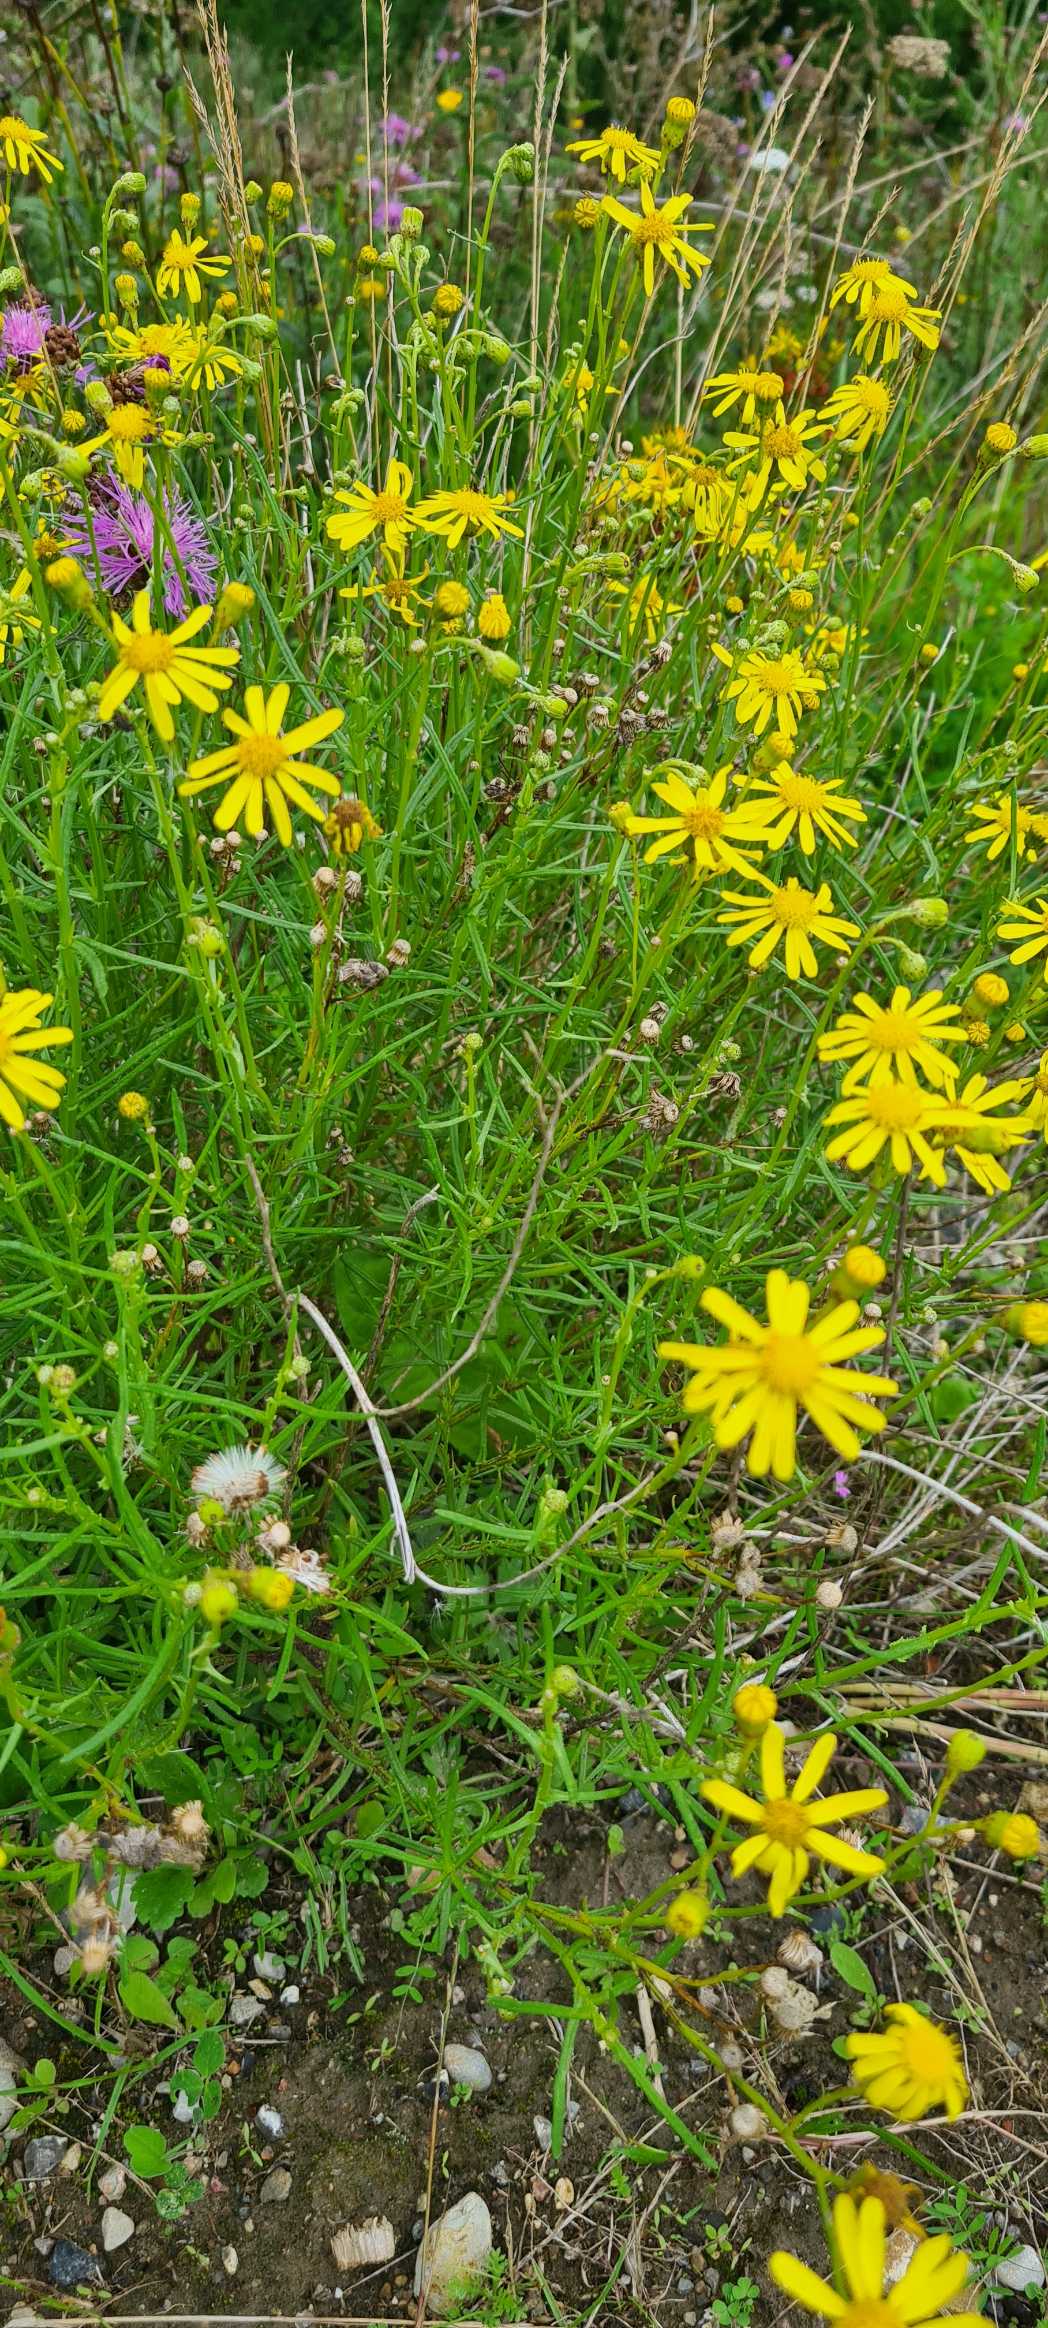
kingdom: Plantae
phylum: Tracheophyta
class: Magnoliopsida
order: Asterales
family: Asteraceae
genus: Senecio
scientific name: Senecio inaequidens
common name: Smalbladet brandbæger
